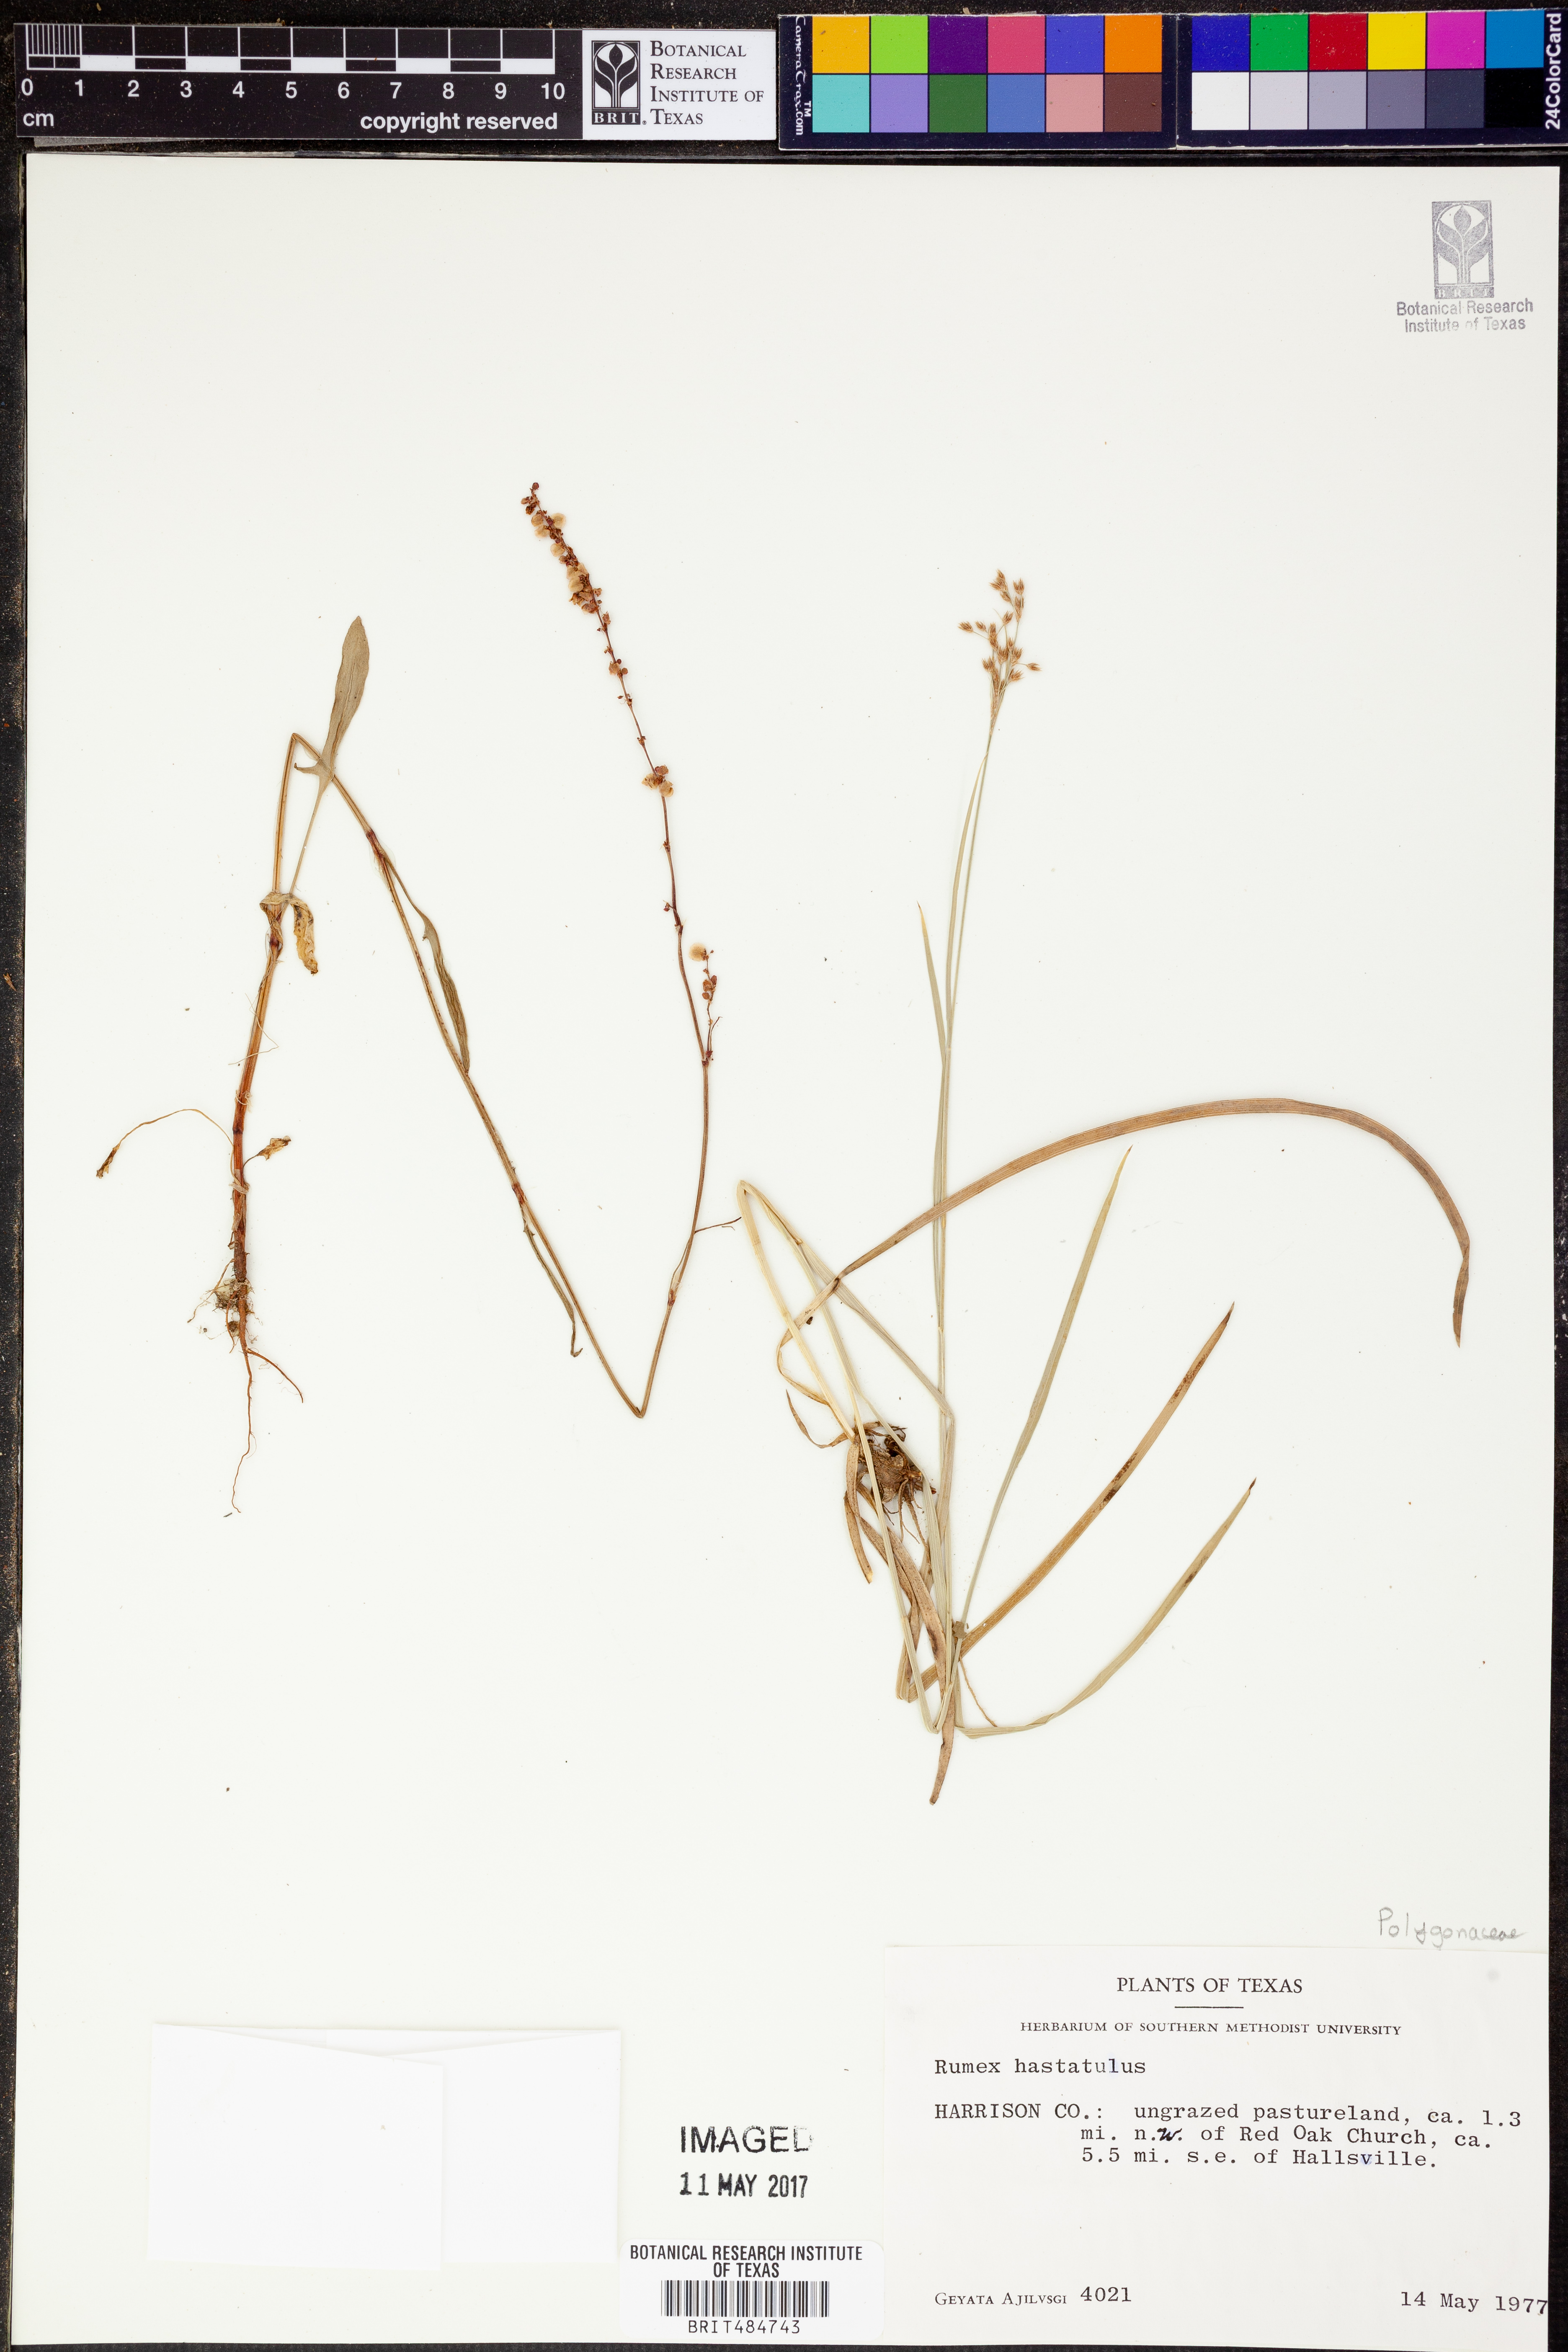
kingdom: Plantae
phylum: Tracheophyta
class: Magnoliopsida
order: Caryophyllales
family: Polygonaceae
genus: Rumex
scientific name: Rumex hastatulus
